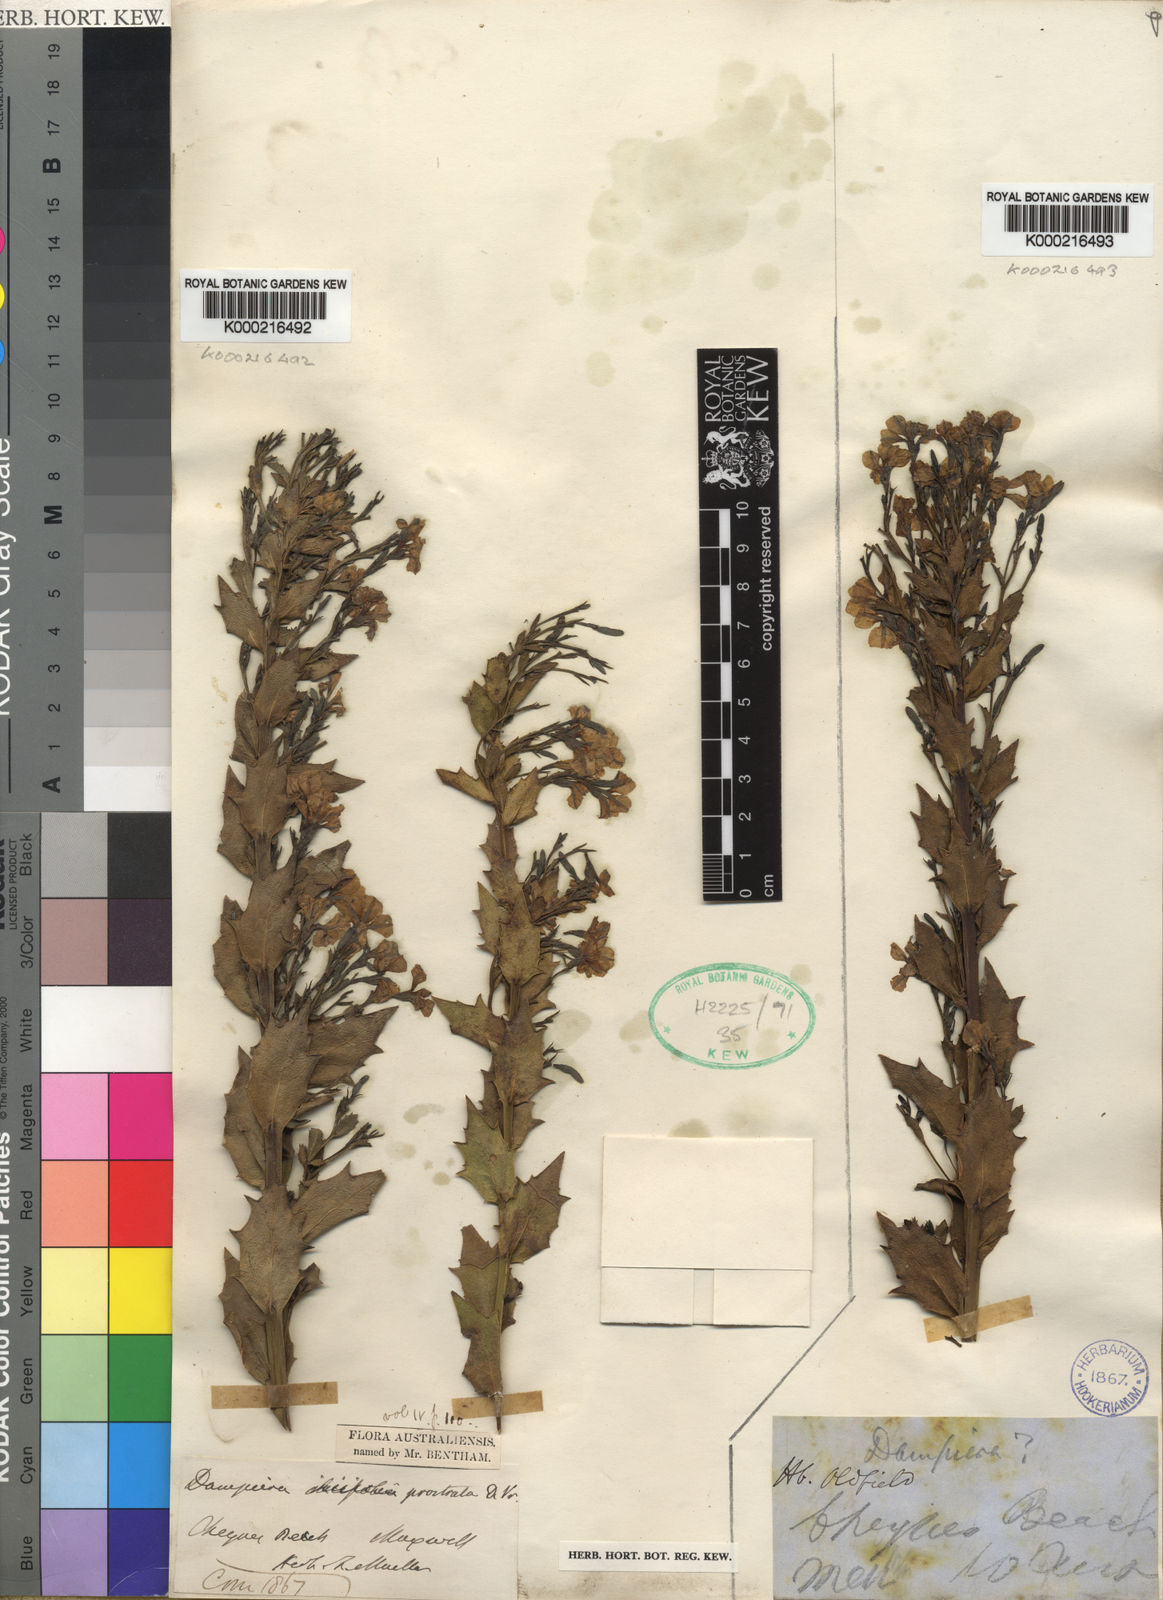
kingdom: Plantae
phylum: Tracheophyta
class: Magnoliopsida
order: Asterales
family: Goodeniaceae
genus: Dampiera
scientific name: Dampiera decurrens
